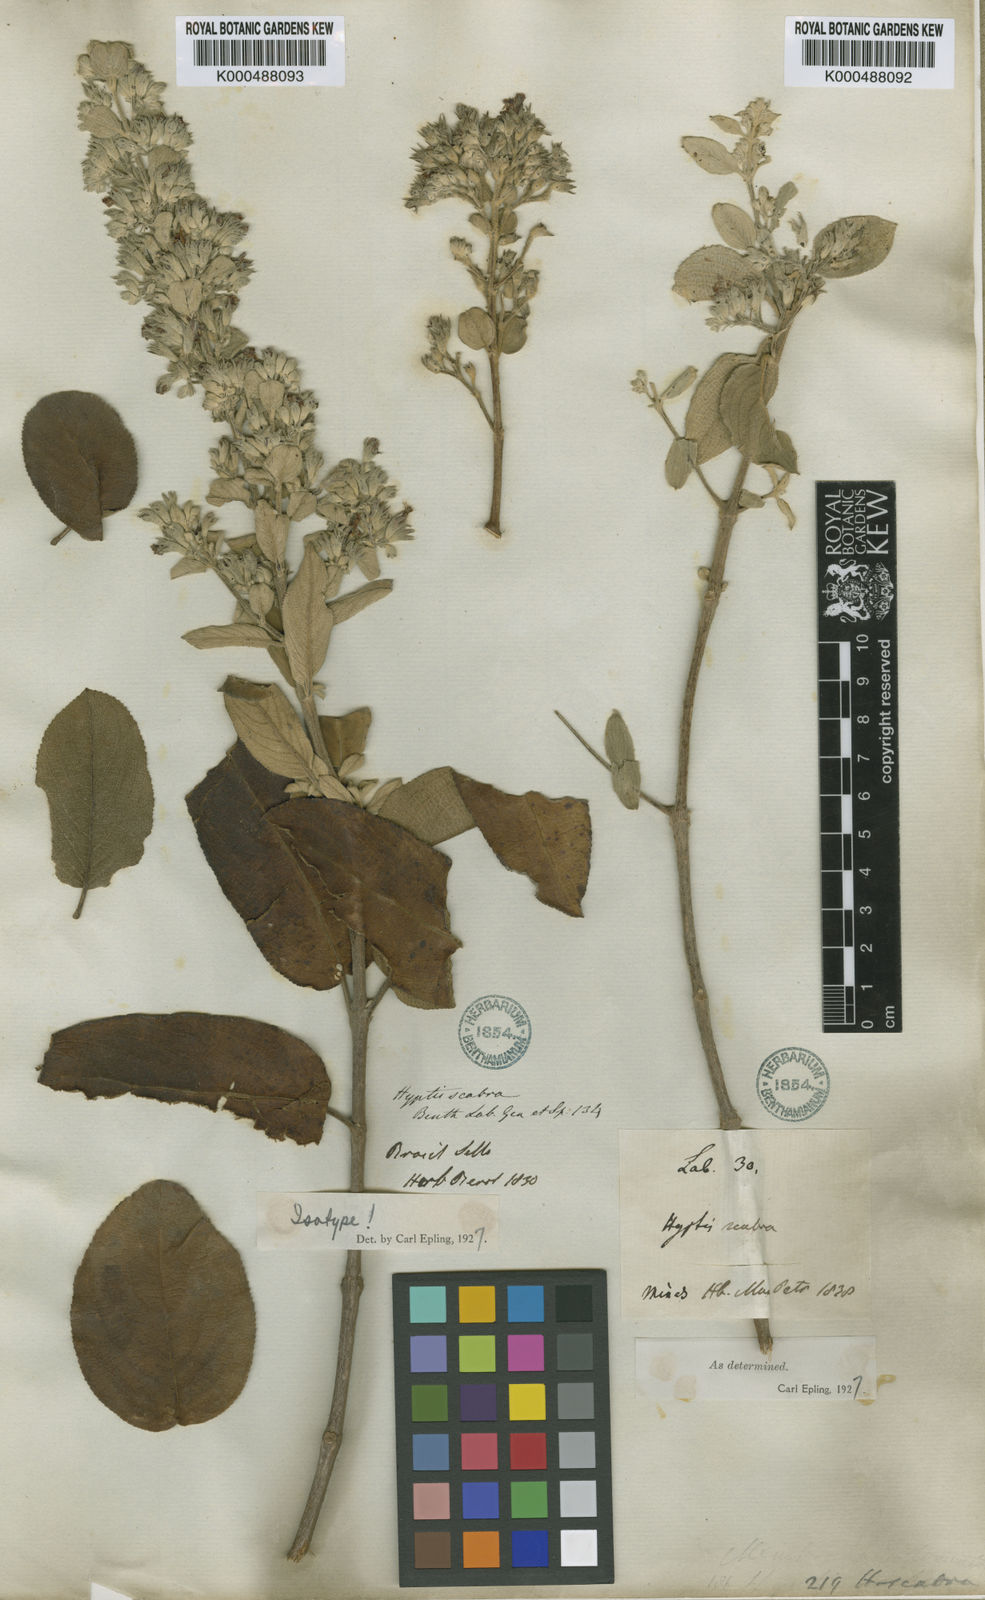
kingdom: Plantae
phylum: Tracheophyta
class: Magnoliopsida
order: Lamiales
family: Lamiaceae
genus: Hyptidendron
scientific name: Hyptidendron canum
